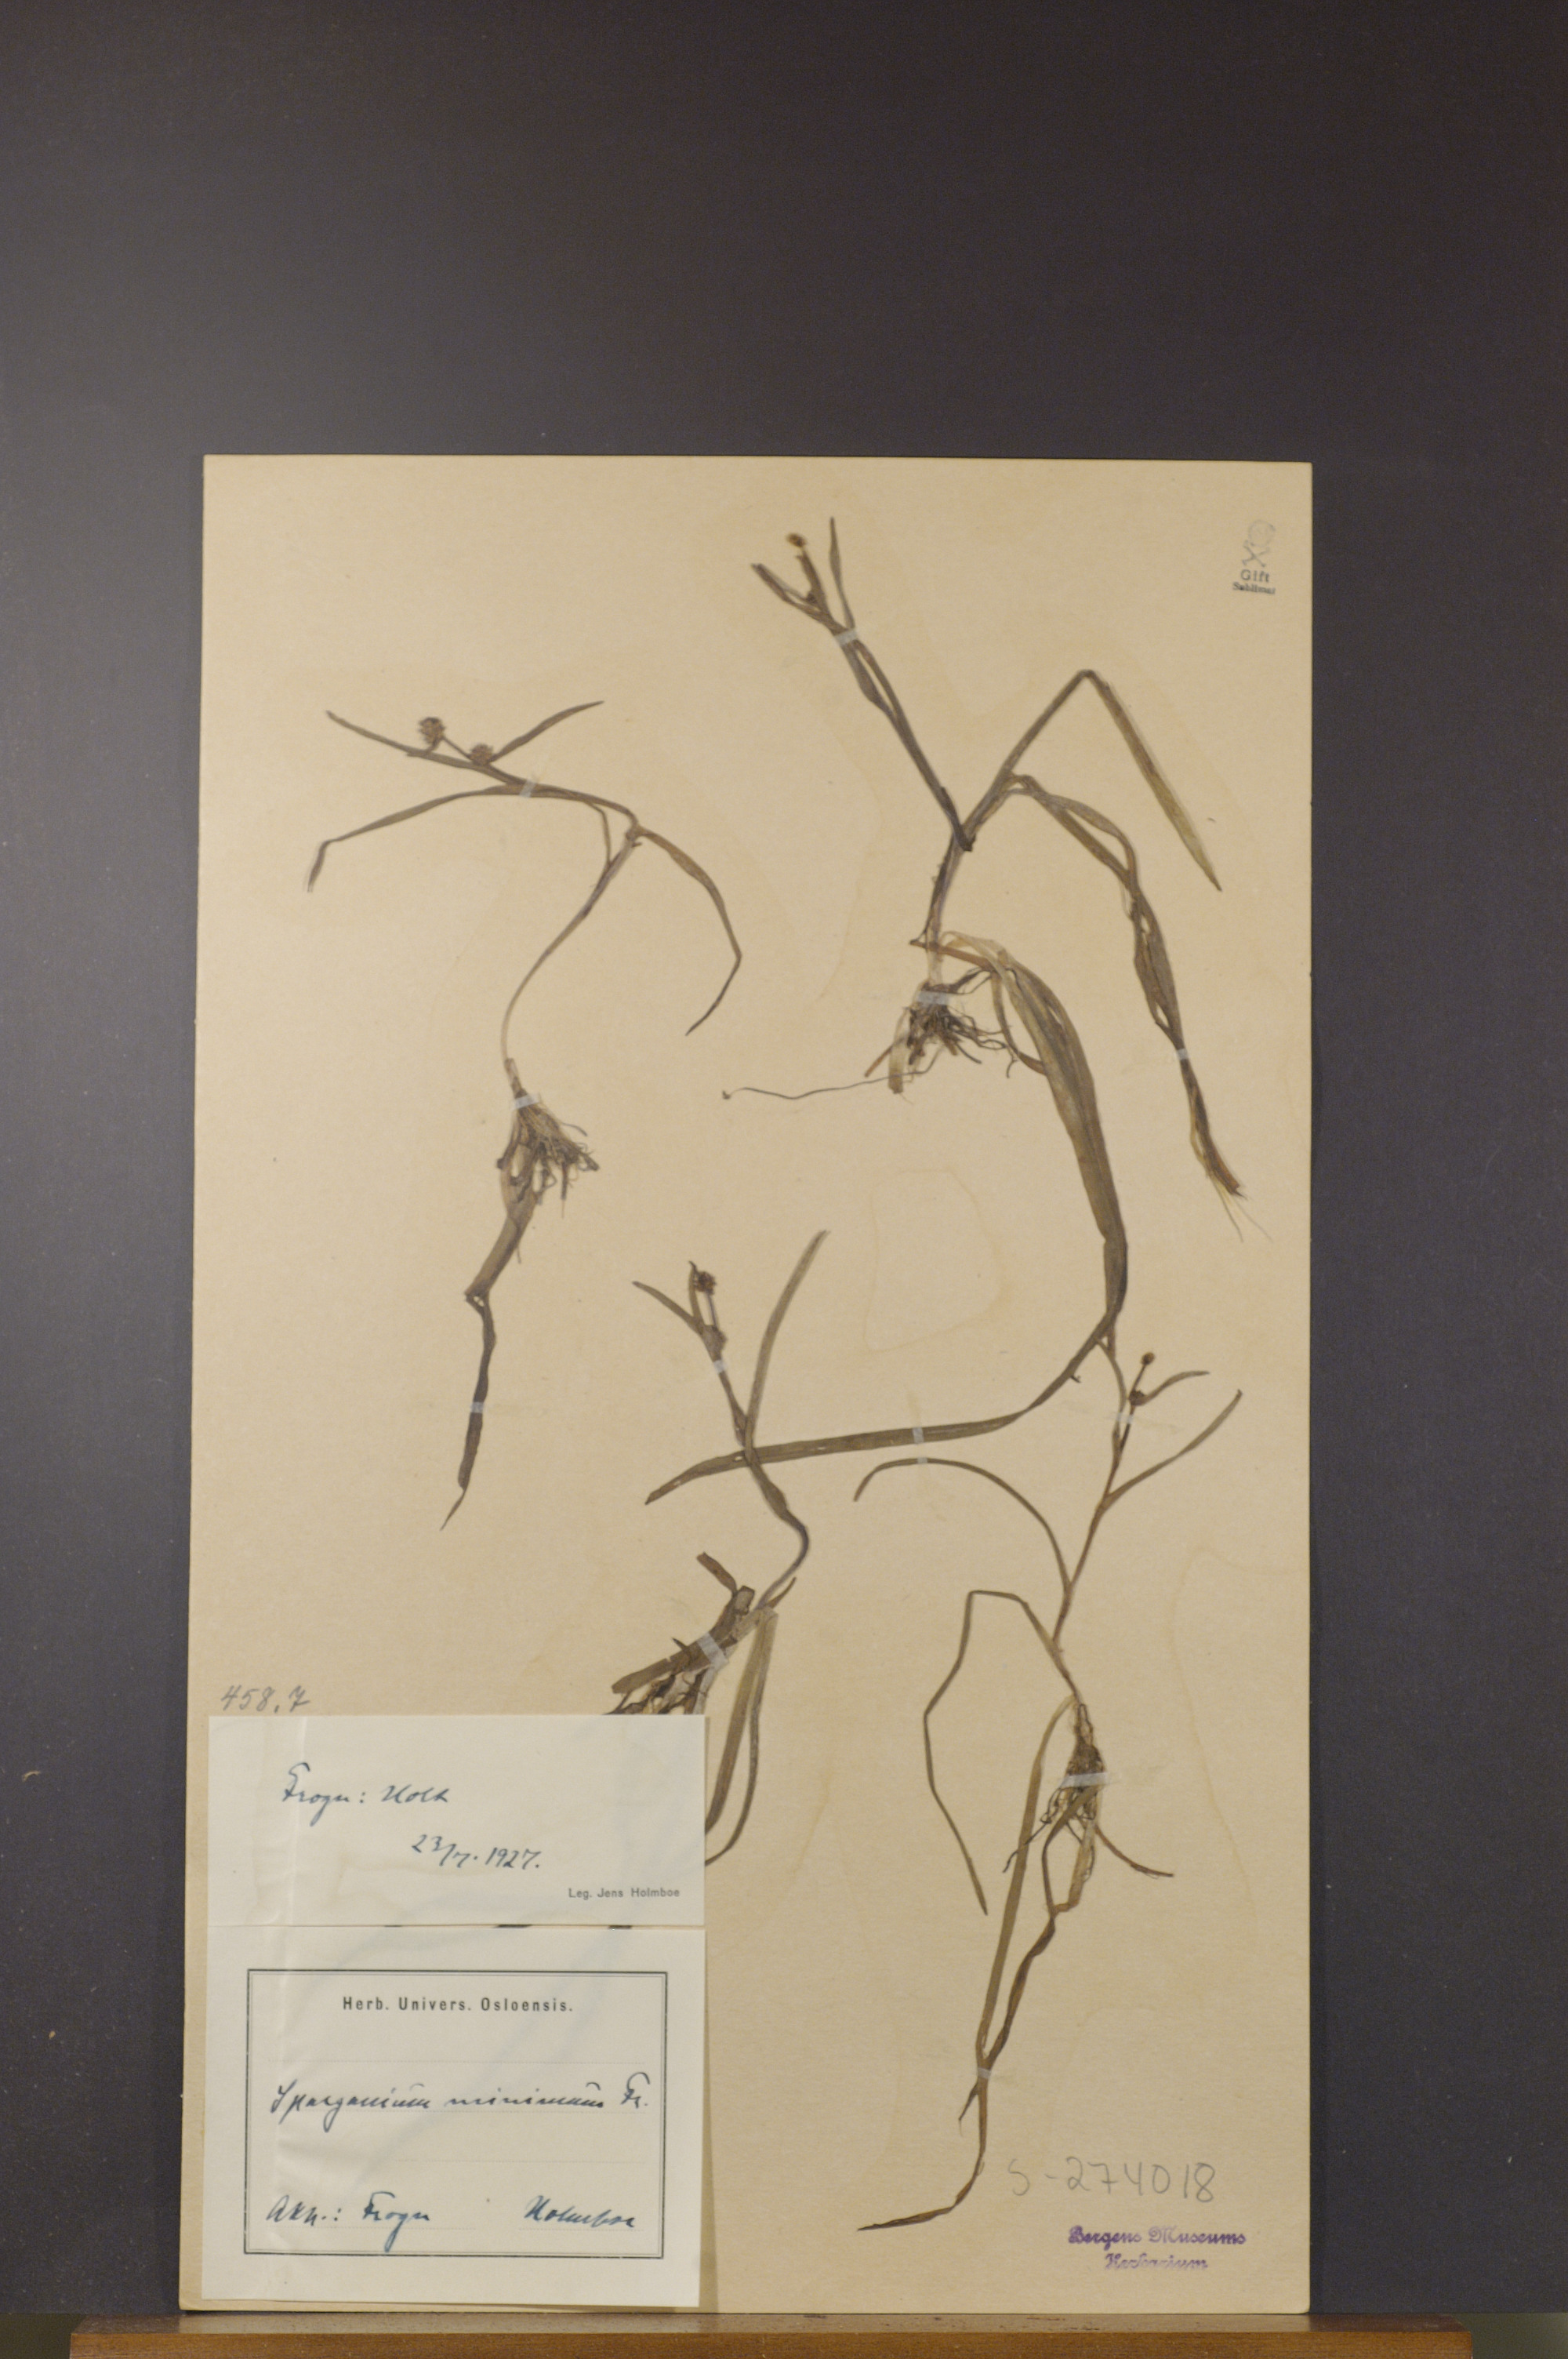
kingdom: Plantae
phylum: Tracheophyta
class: Liliopsida
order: Poales
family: Typhaceae
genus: Sparganium
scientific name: Sparganium natans
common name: Least bur-reed
